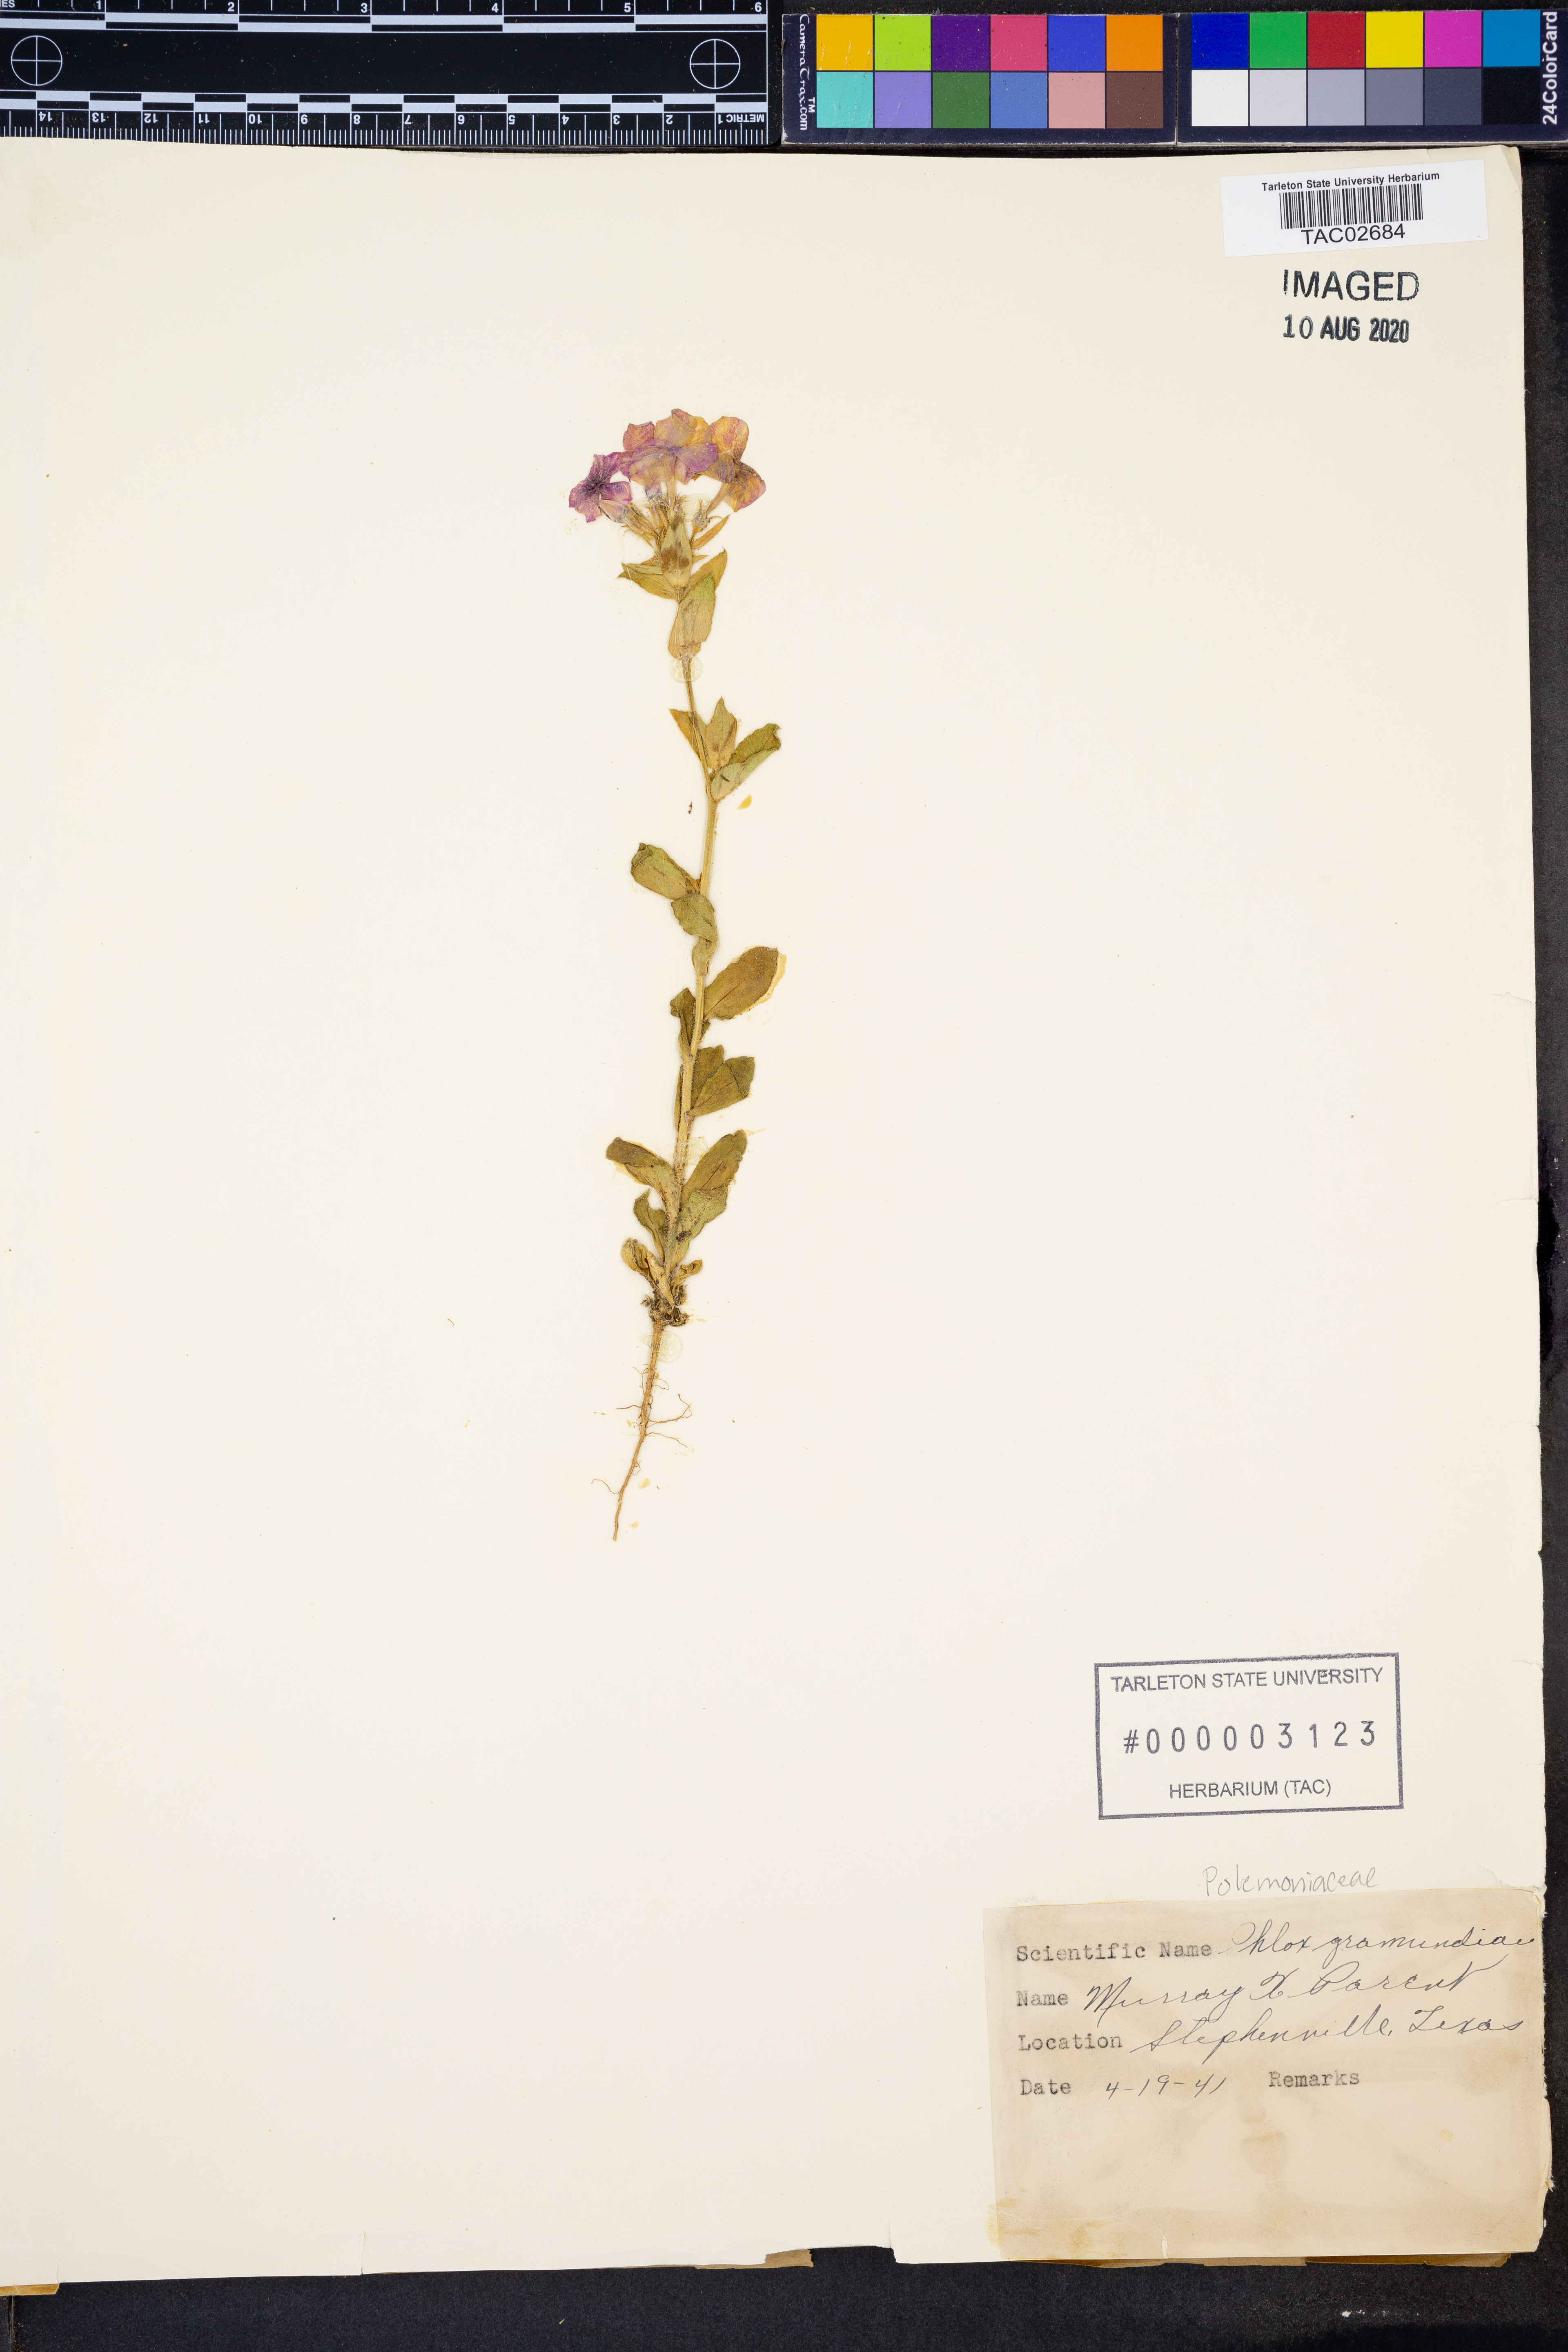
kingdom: Plantae
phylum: Tracheophyta
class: Magnoliopsida
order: Ericales
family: Polemoniaceae
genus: Phlox
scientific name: Phlox
